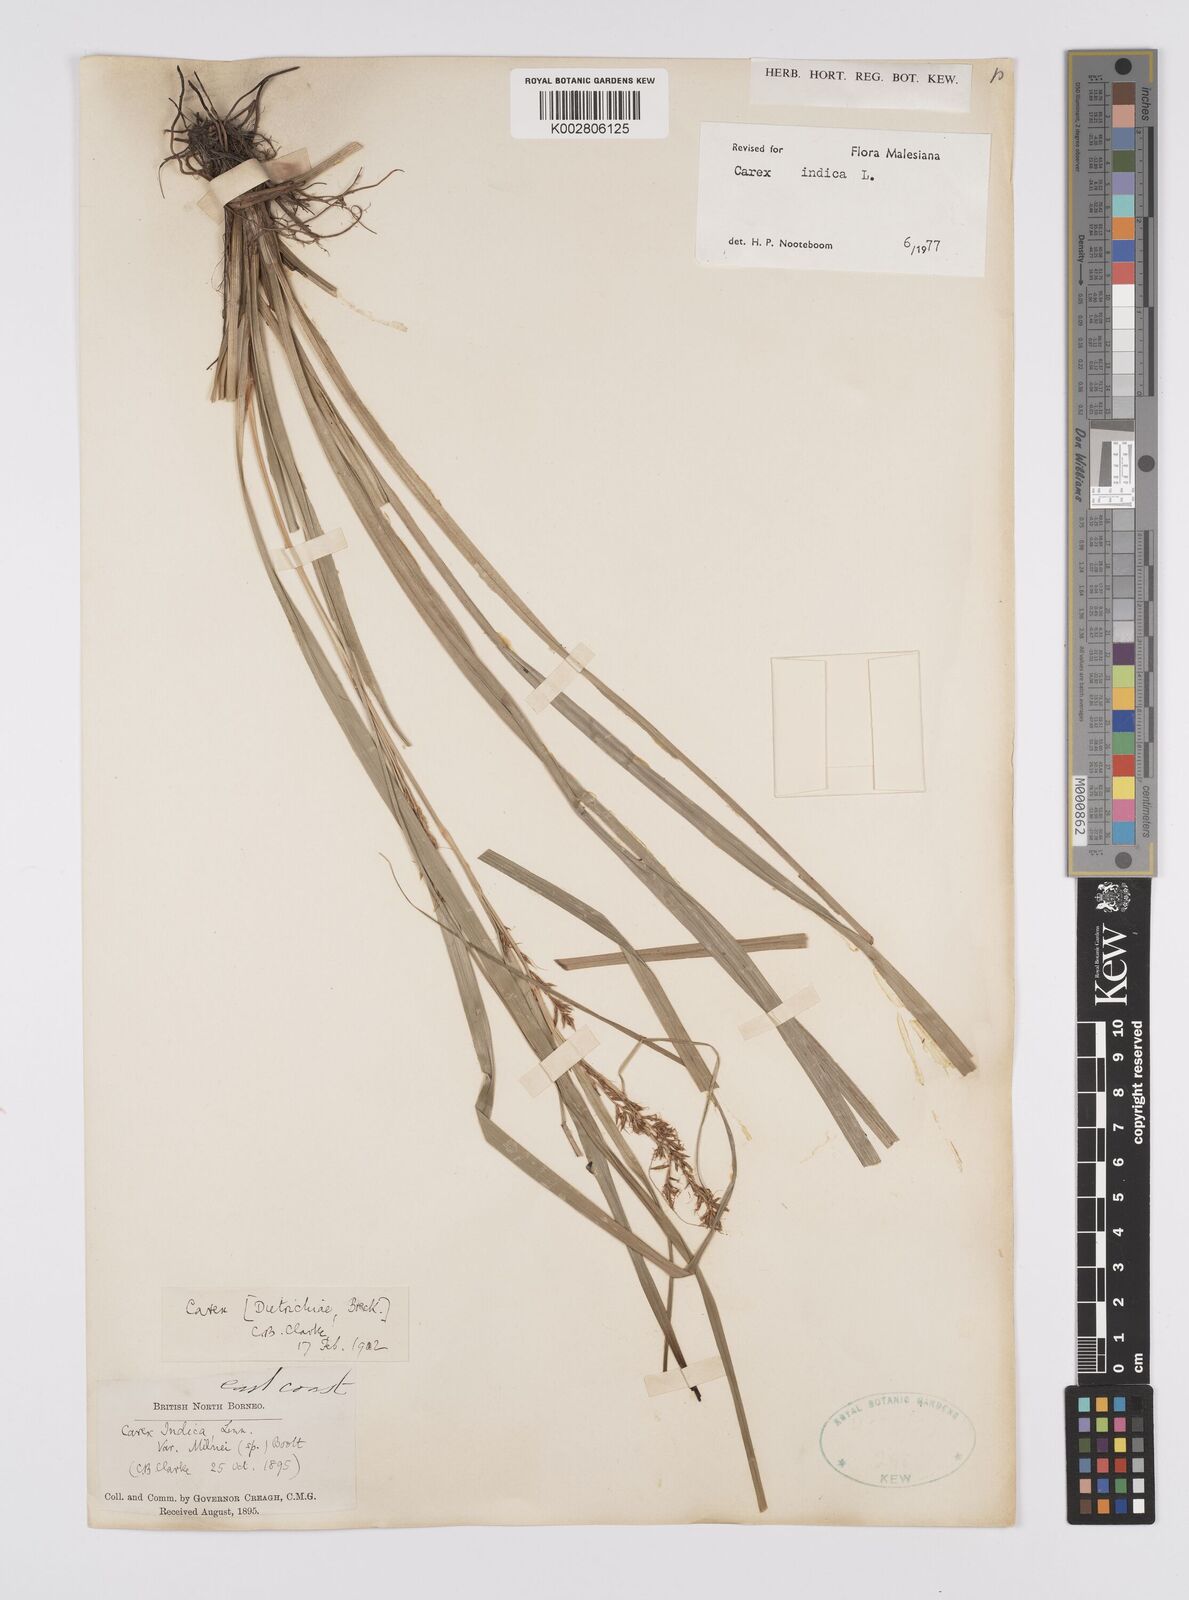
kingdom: Plantae
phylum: Tracheophyta
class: Liliopsida
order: Poales
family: Cyperaceae
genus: Carex
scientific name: Carex indica
